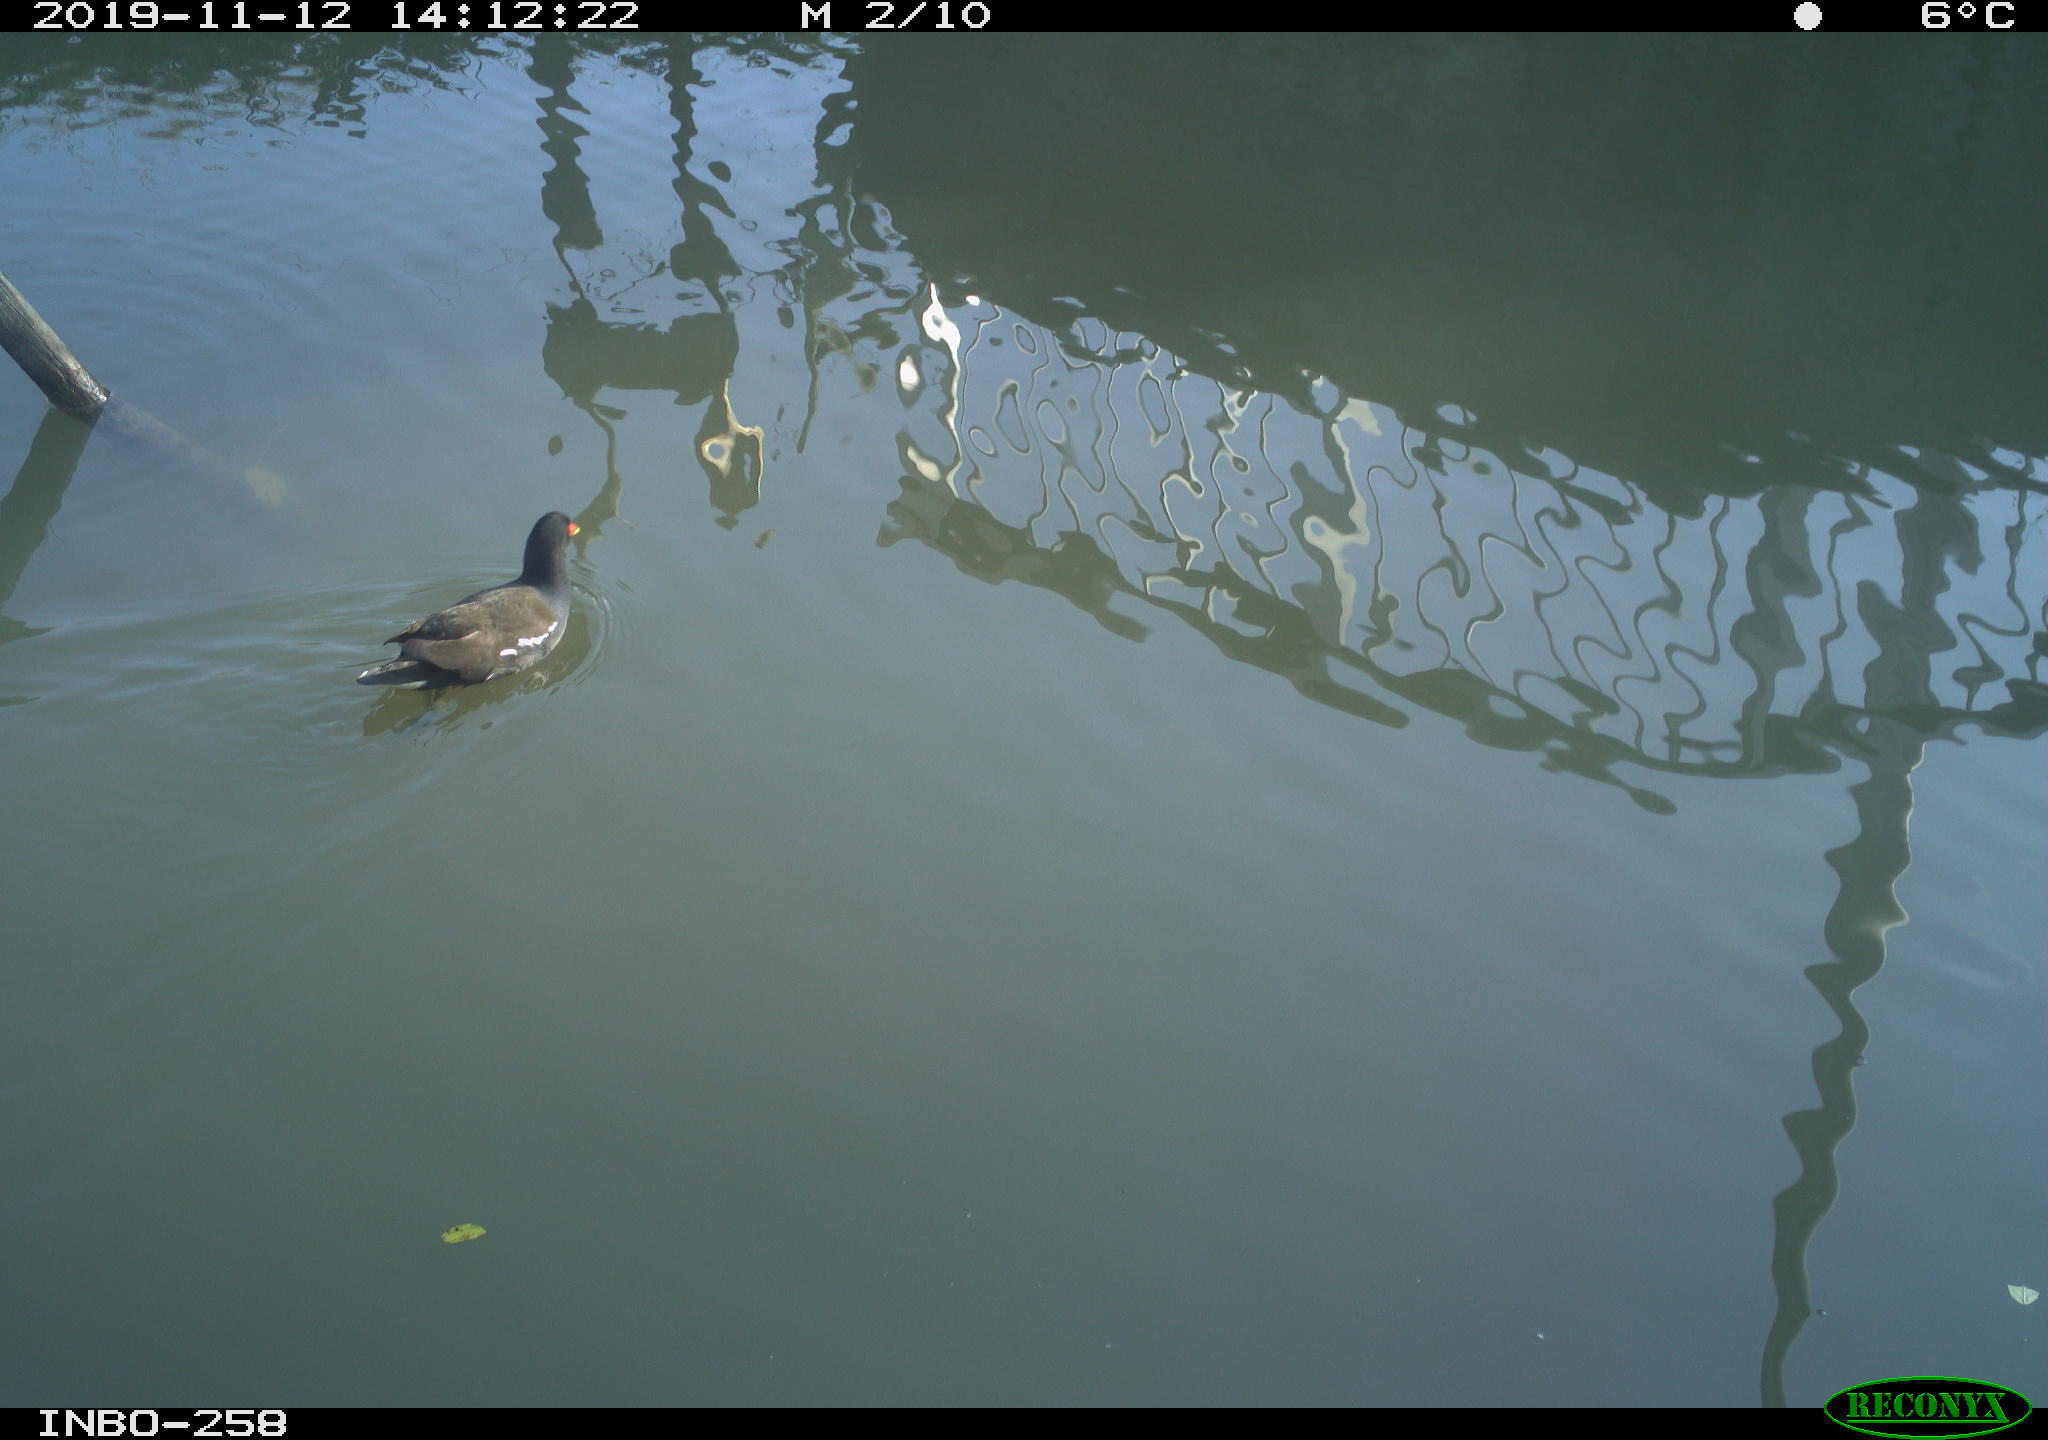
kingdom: Animalia
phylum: Chordata
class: Aves
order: Gruiformes
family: Rallidae
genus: Gallinula
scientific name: Gallinula chloropus
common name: Common moorhen
